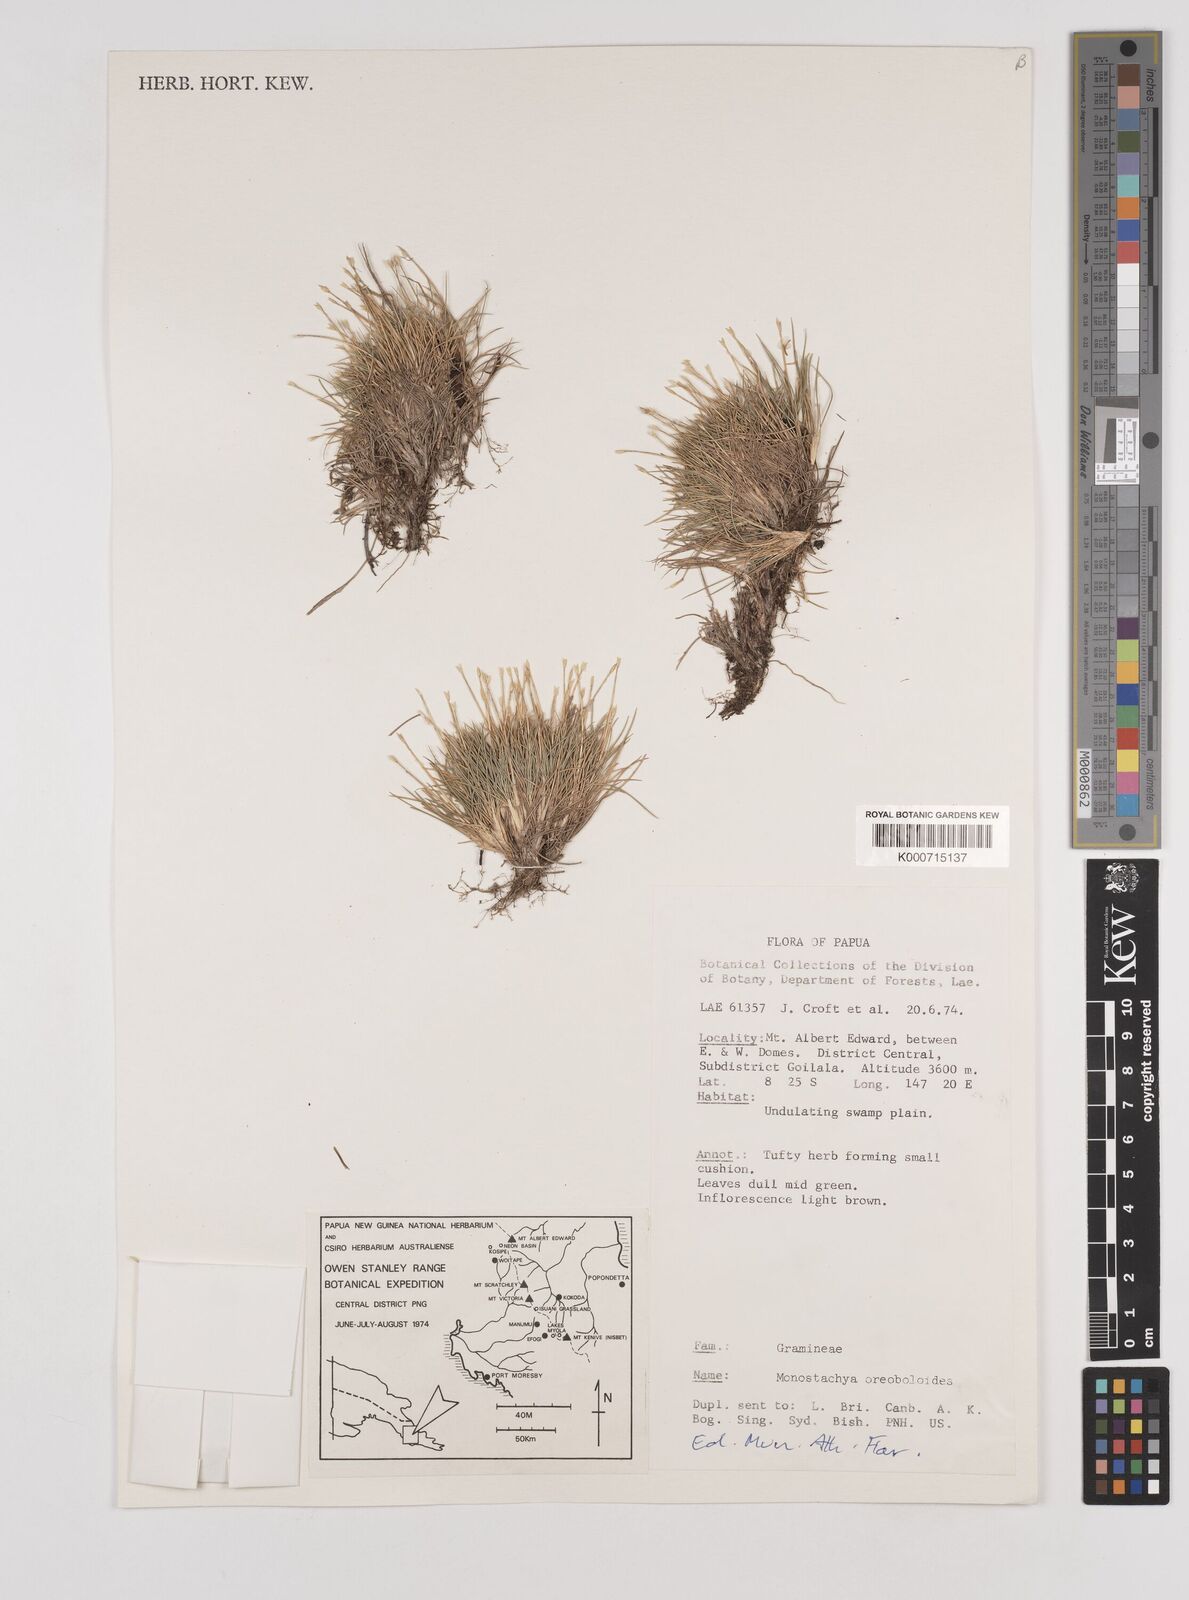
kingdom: Plantae
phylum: Tracheophyta
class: Liliopsida
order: Poales
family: Poaceae
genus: Rytidosperma
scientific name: Rytidosperma oreoboloides
